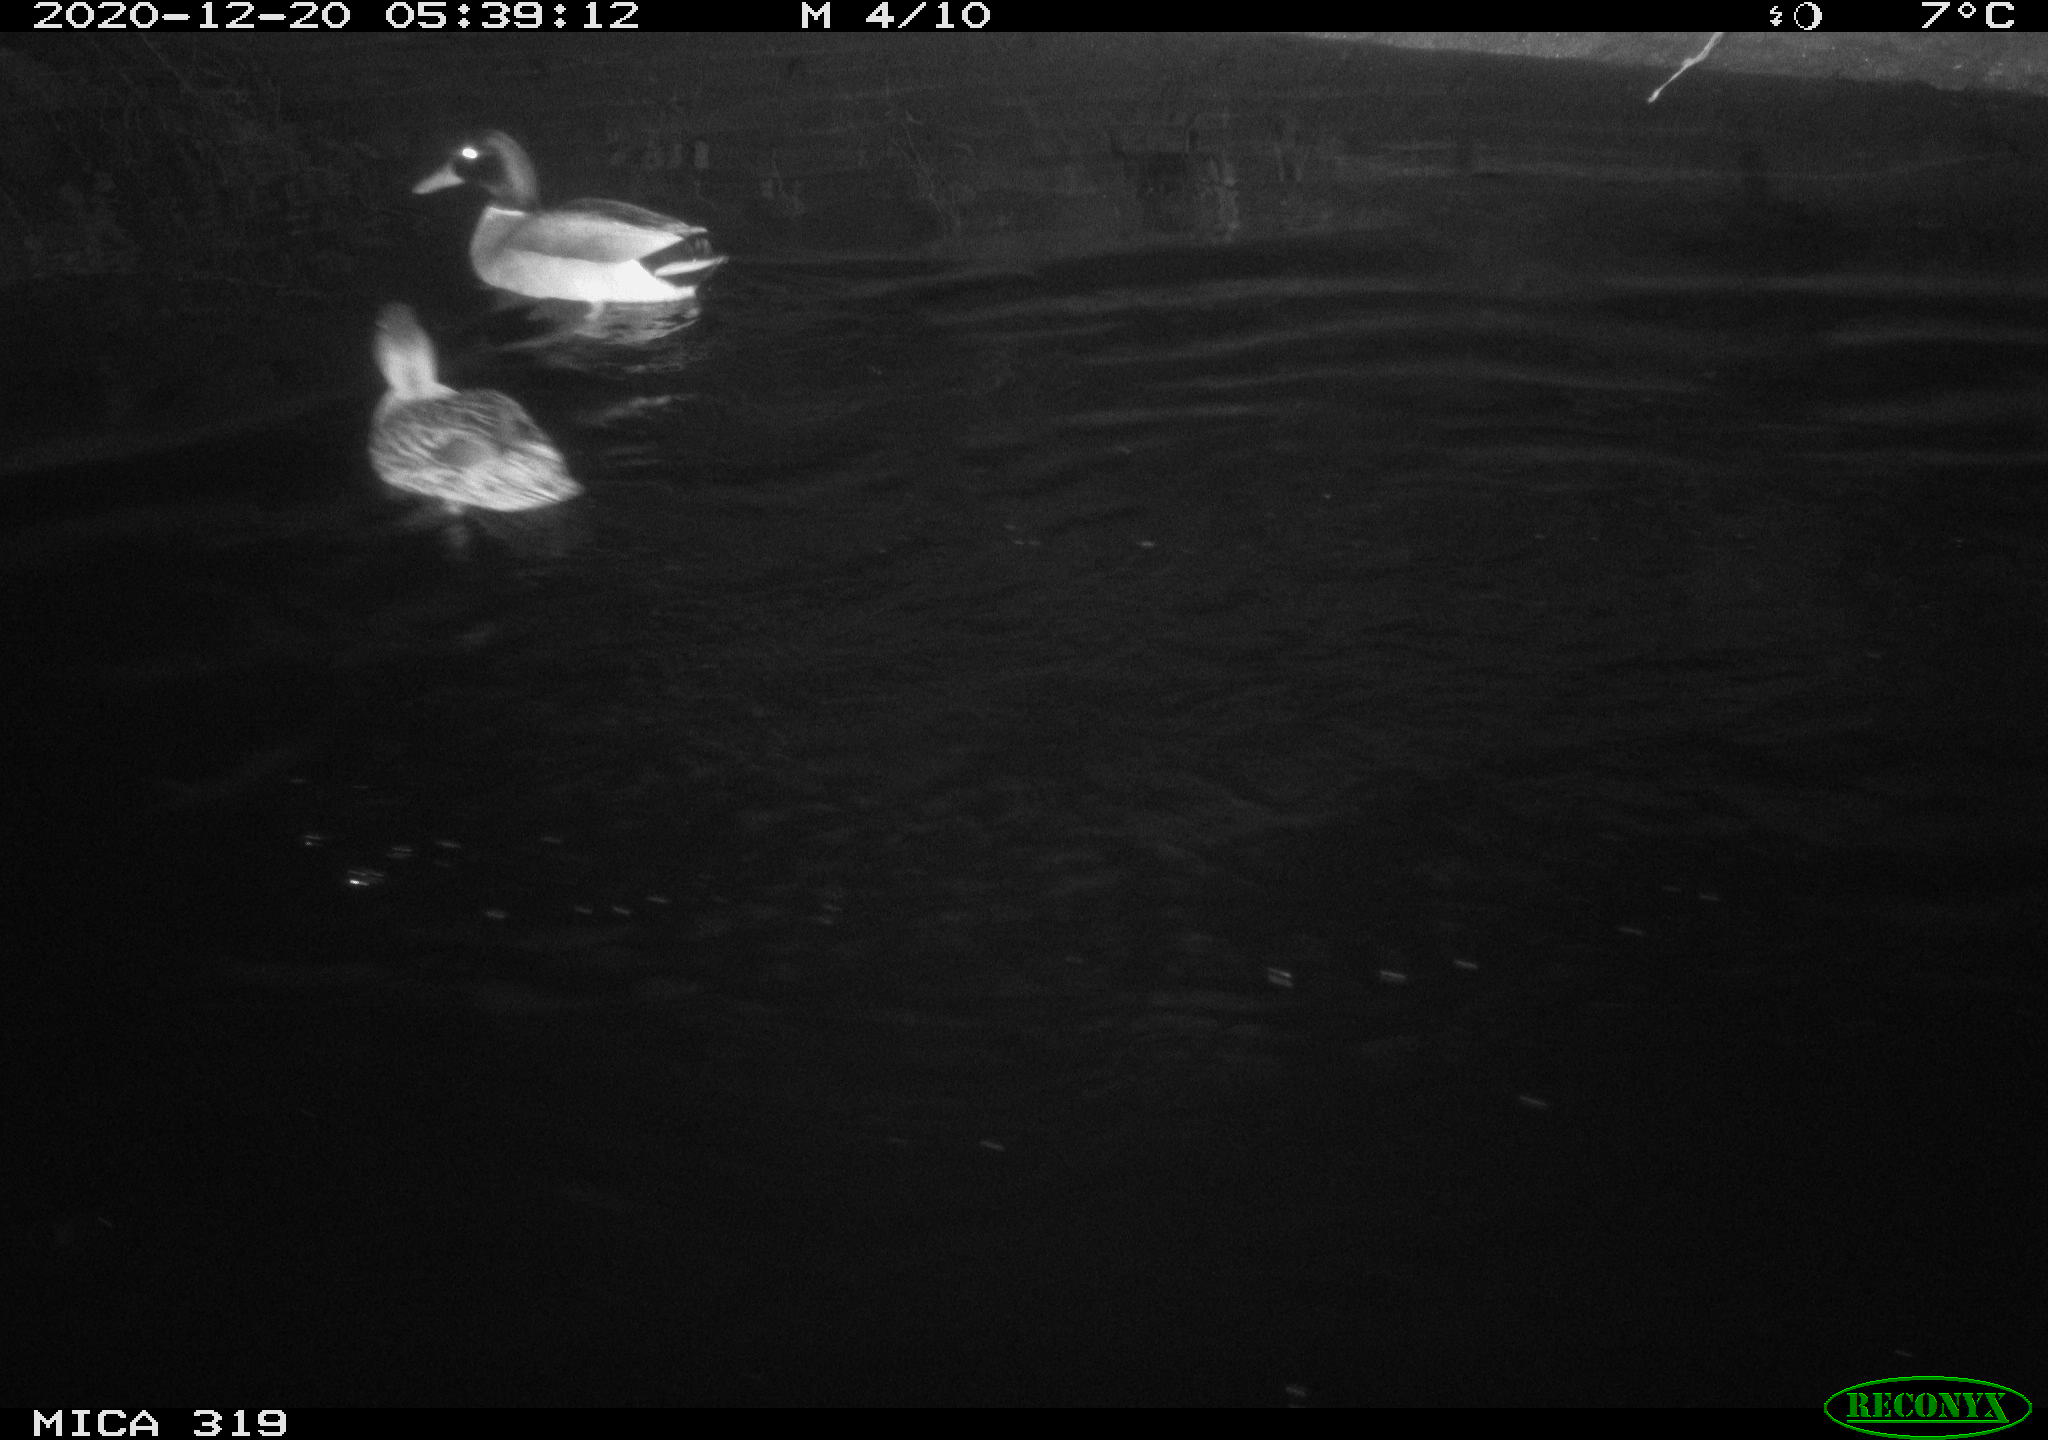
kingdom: Animalia
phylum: Chordata
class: Aves
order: Anseriformes
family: Anatidae
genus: Anas
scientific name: Anas platyrhynchos
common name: Mallard
